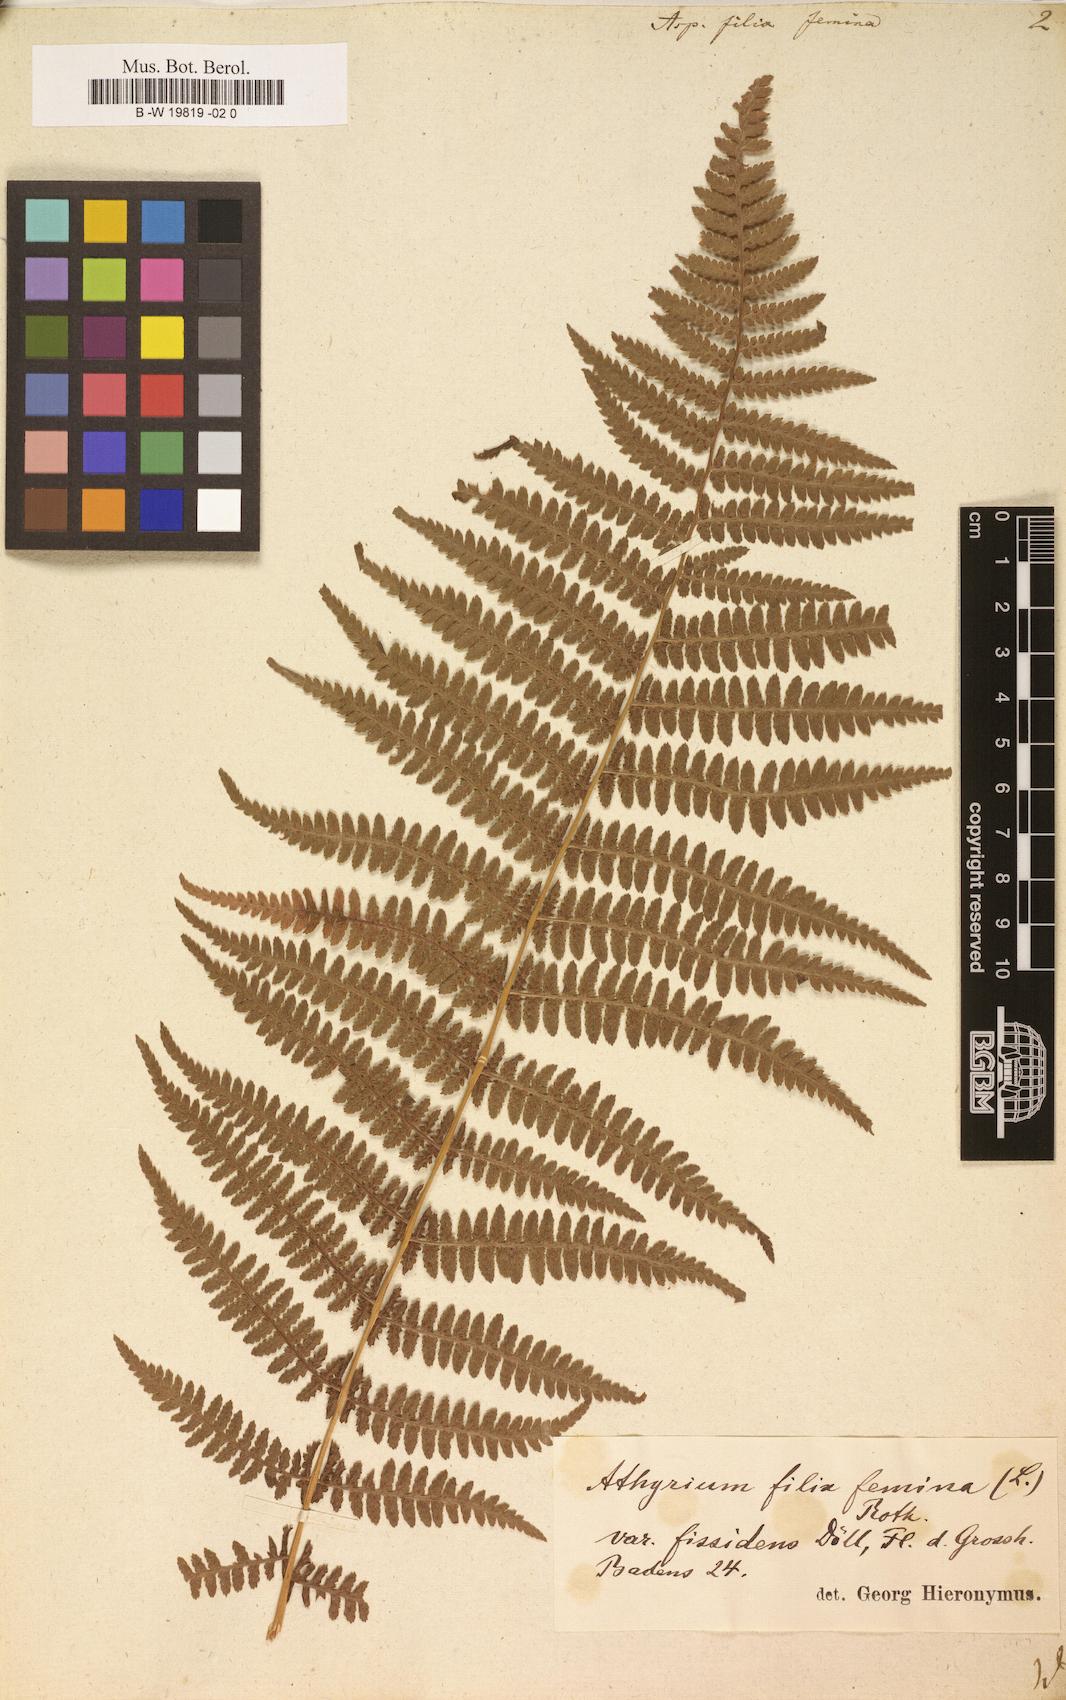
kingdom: Plantae
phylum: Tracheophyta
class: Polypodiopsida
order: Polypodiales
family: Athyriaceae
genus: Athyrium
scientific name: Athyrium filix-femina
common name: Lady fern
